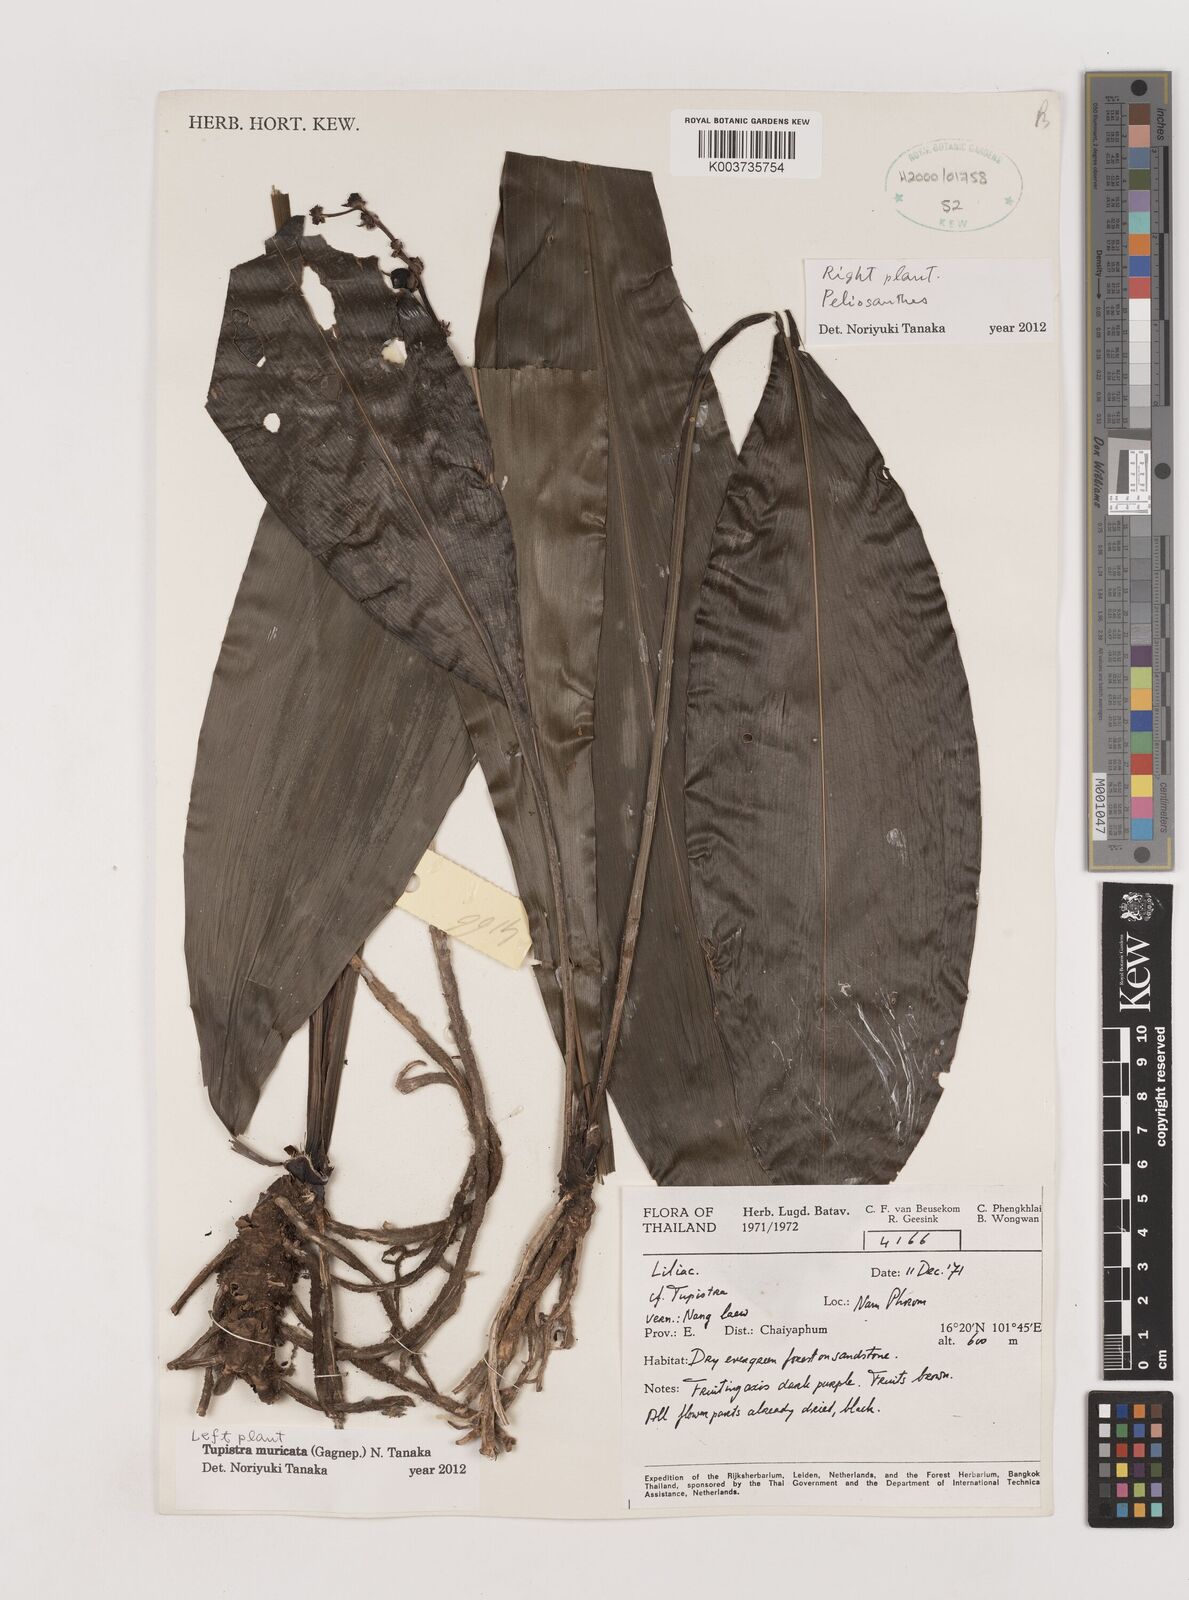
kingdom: Plantae
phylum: Tracheophyta
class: Liliopsida
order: Asparagales
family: Asparagaceae
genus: Tupistra
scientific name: Tupistra muricata
